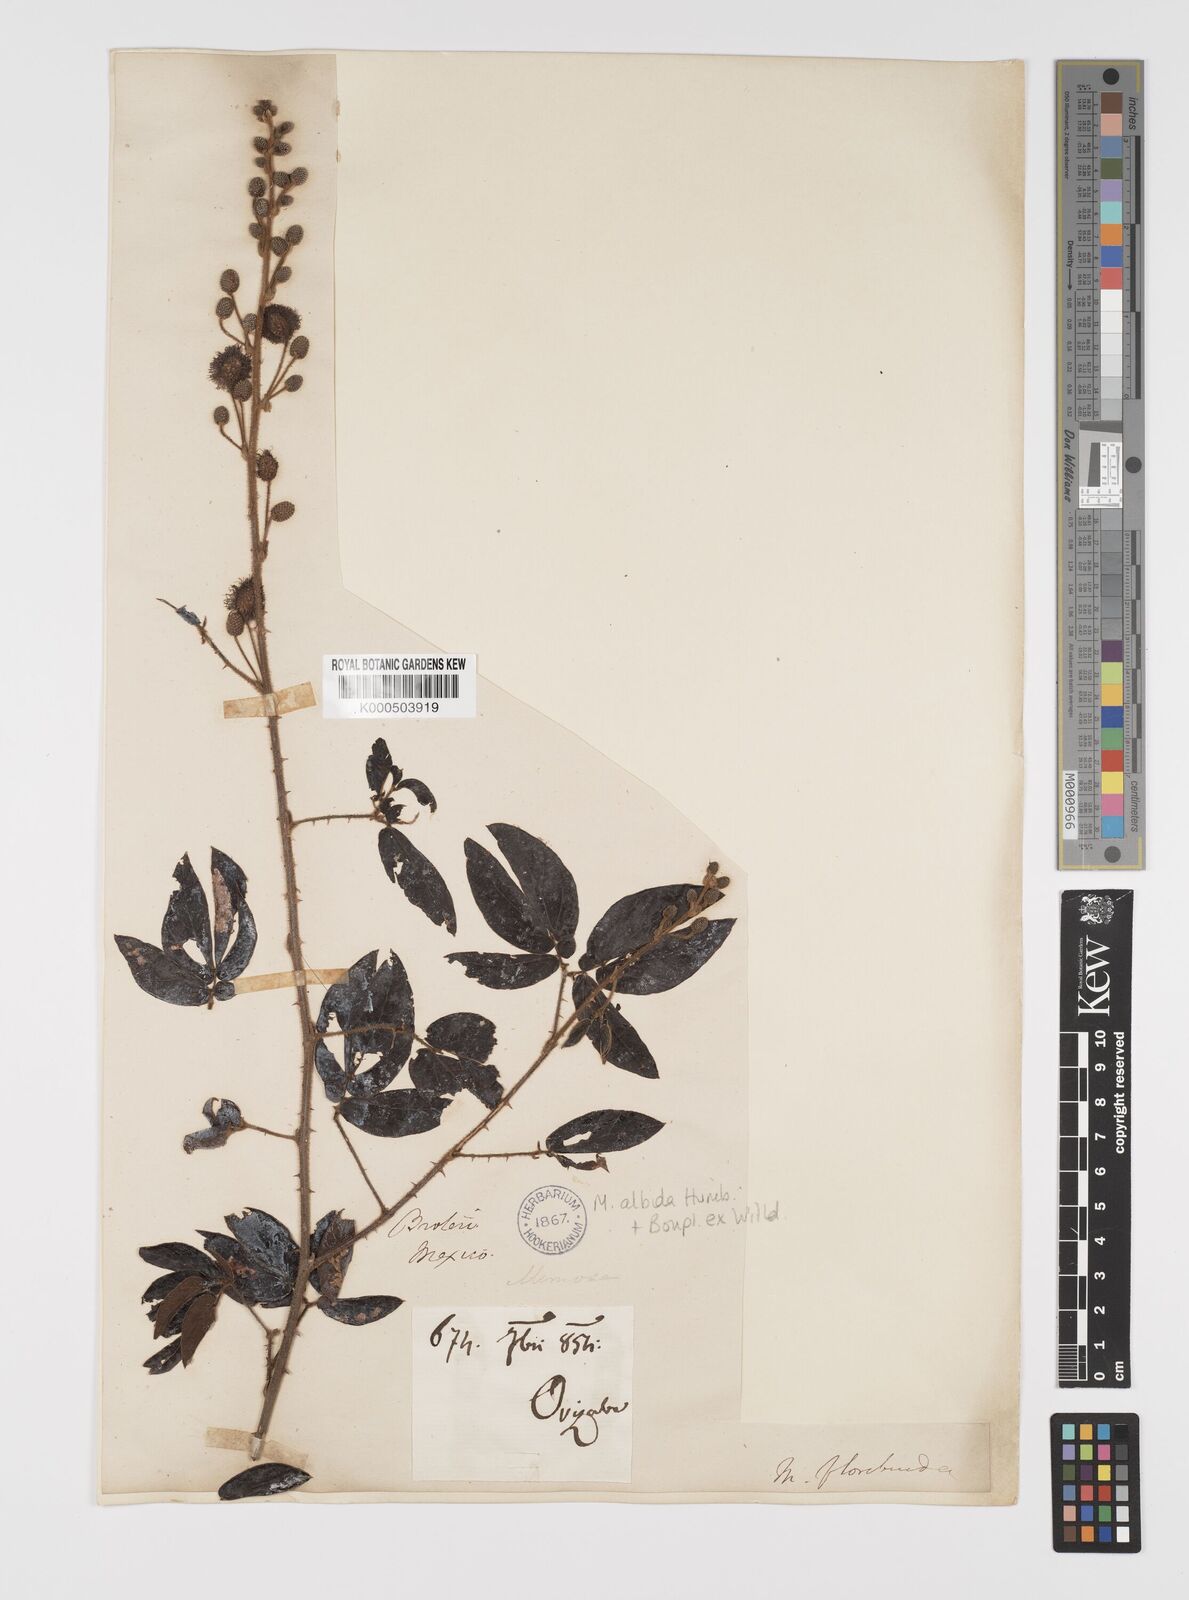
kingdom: Plantae
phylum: Tracheophyta
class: Magnoliopsida
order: Fabales
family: Fabaceae
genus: Mimosa
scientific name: Mimosa albida
